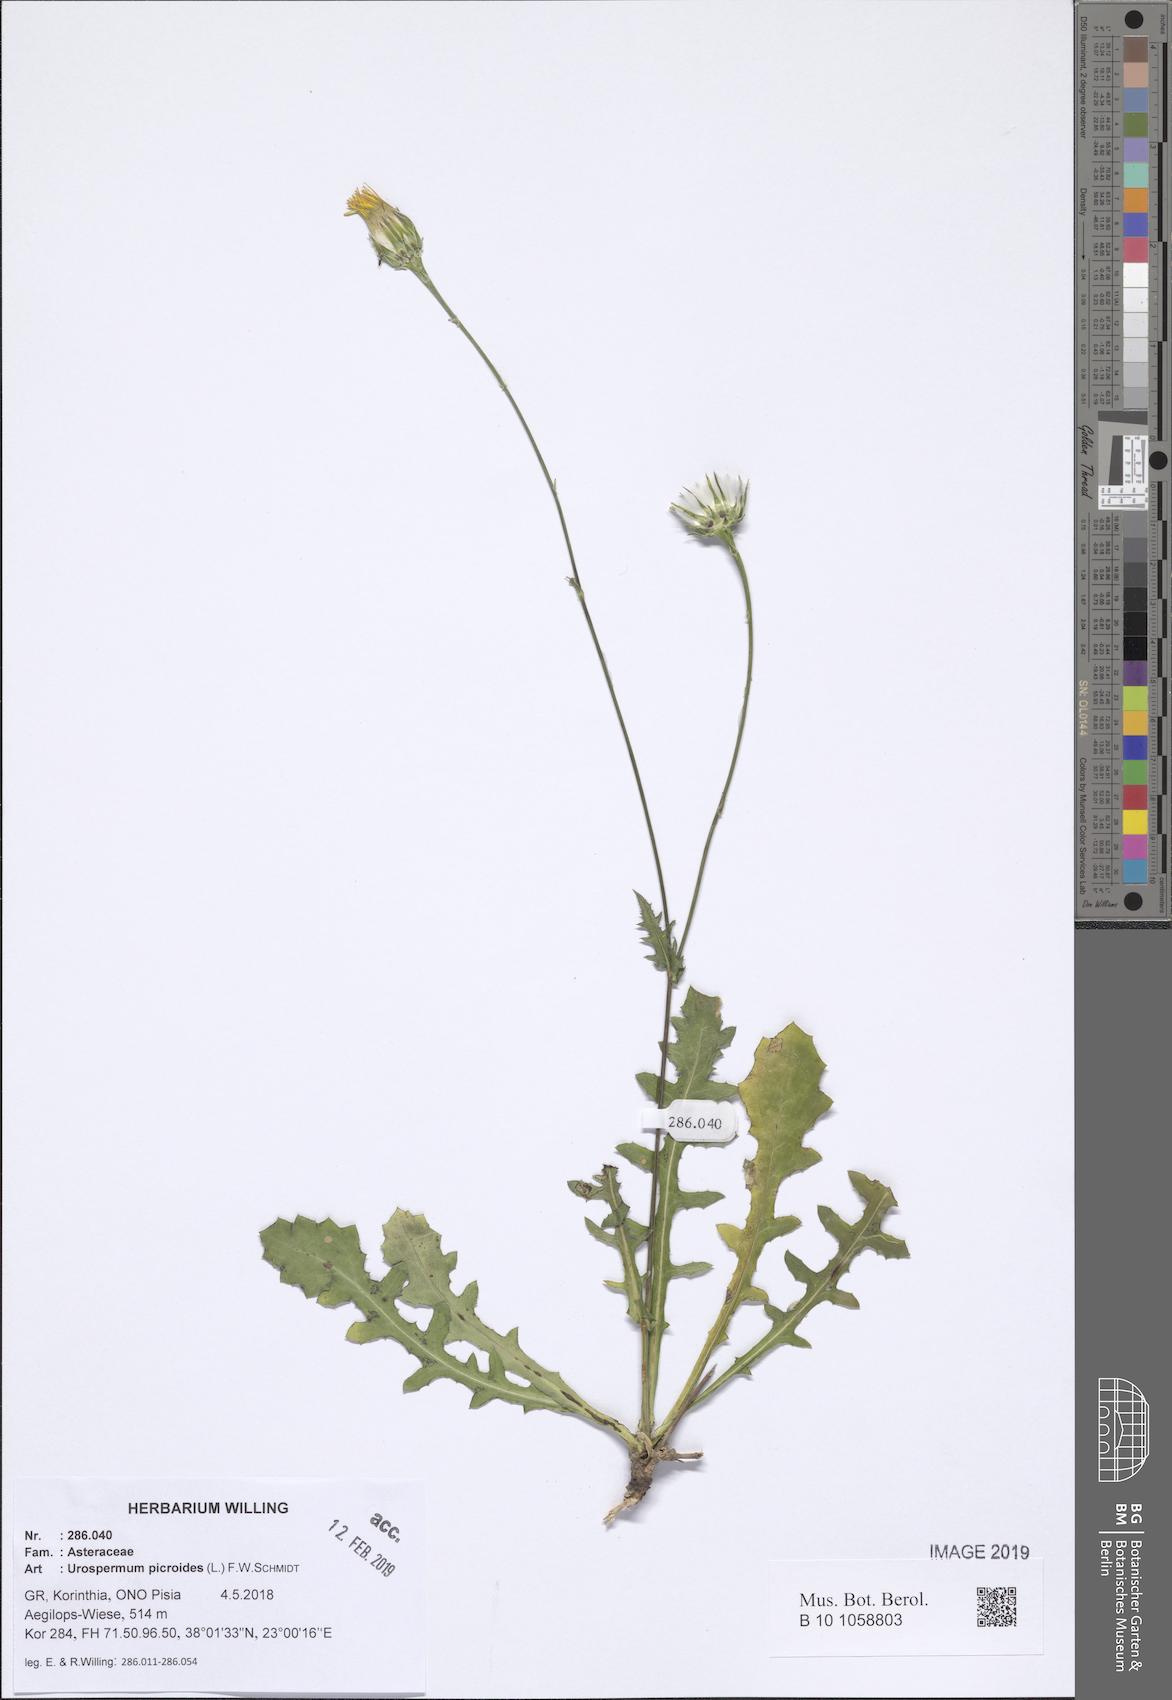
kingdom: Plantae
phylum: Tracheophyta
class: Magnoliopsida
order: Asterales
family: Asteraceae
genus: Urospermum
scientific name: Urospermum picroides
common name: False hawkbit
